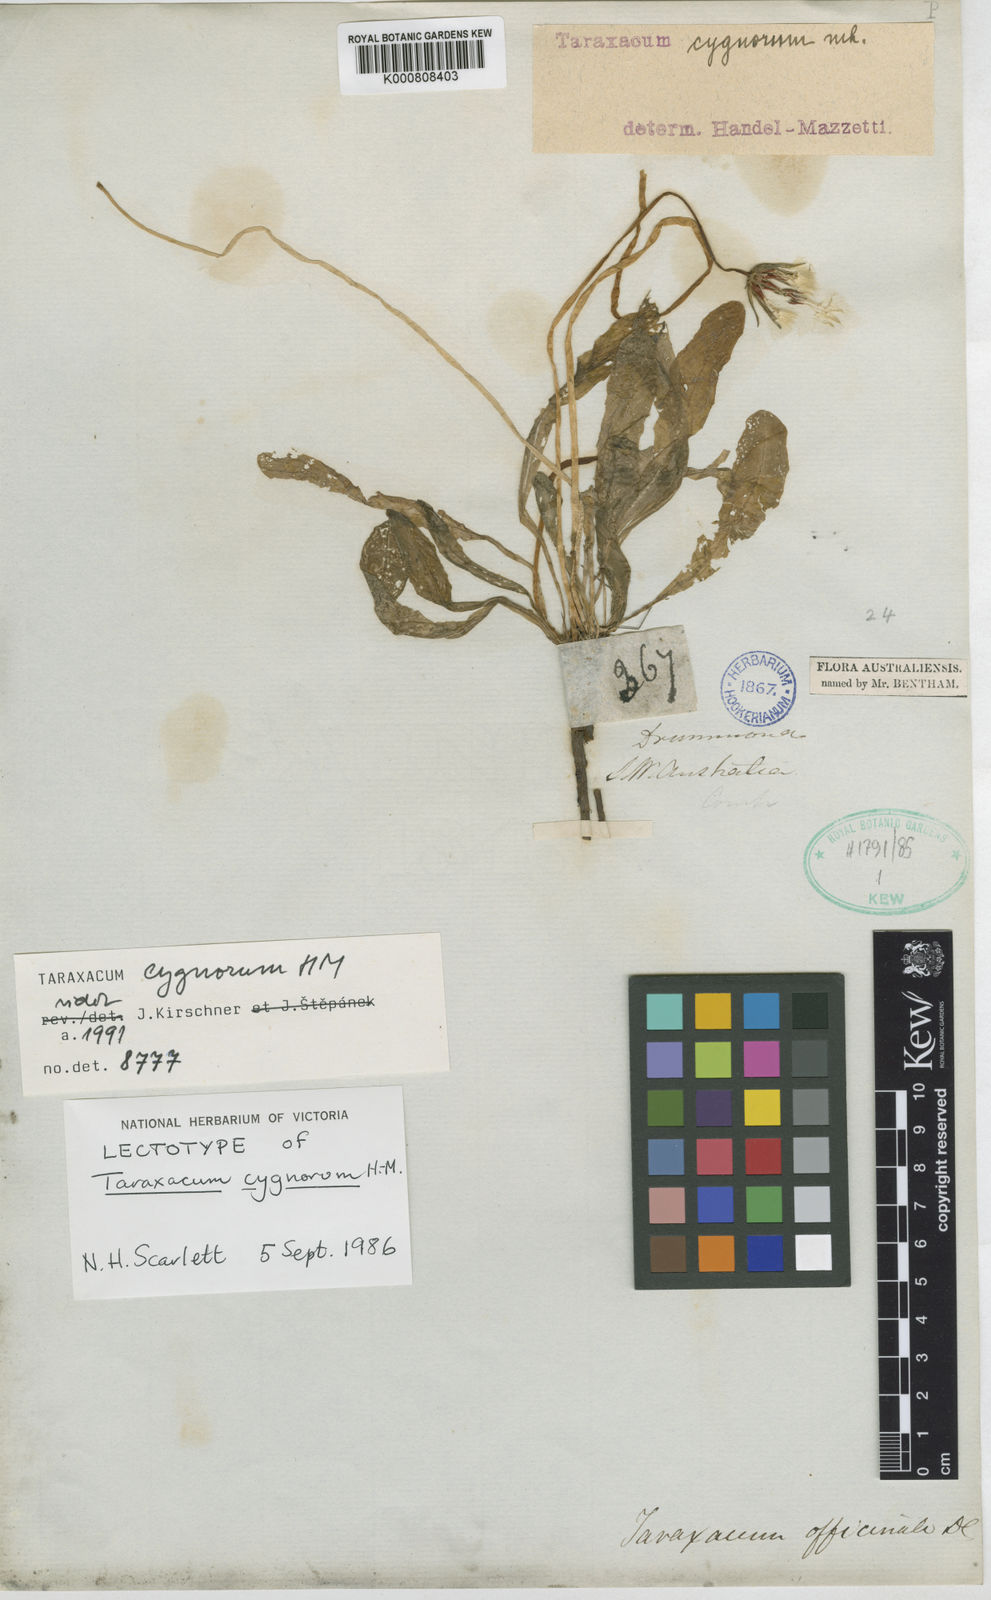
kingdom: Plantae
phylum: Tracheophyta
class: Magnoliopsida
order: Asterales
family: Asteraceae
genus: Taraxacum
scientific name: Taraxacum cygnorum
